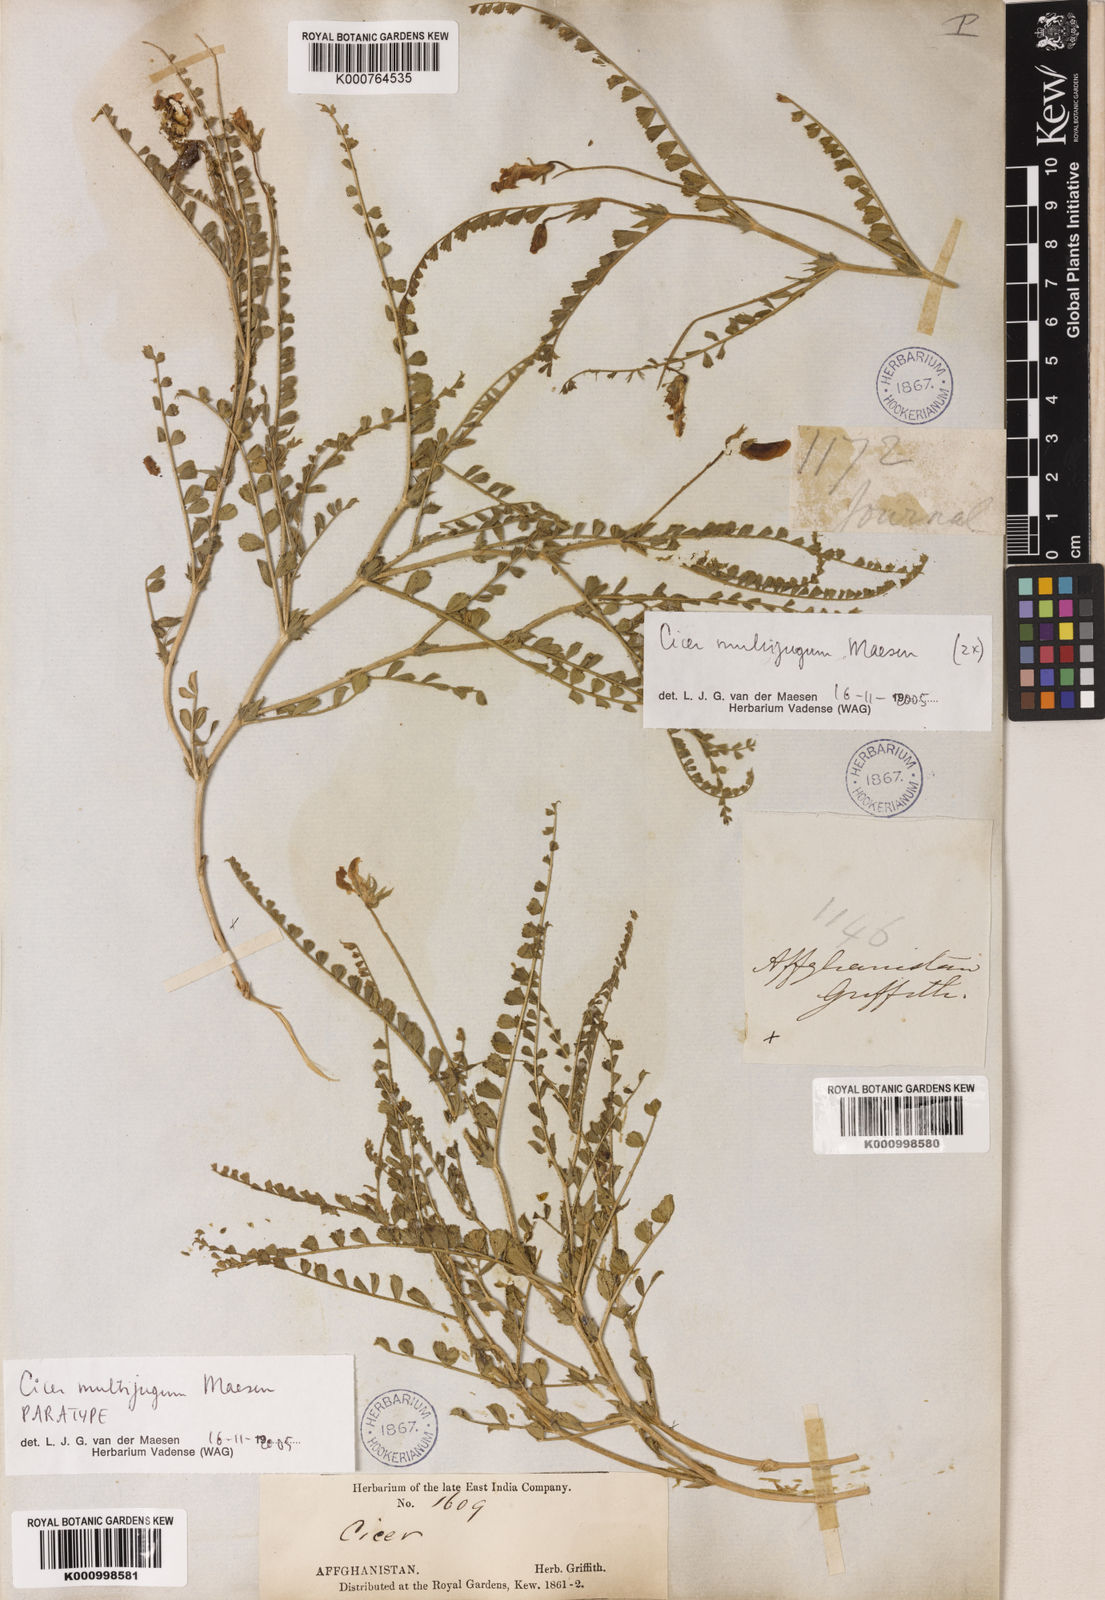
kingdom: Plantae
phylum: Tracheophyta
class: Magnoliopsida
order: Fabales
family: Fabaceae
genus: Cicer
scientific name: Cicer multijugum
